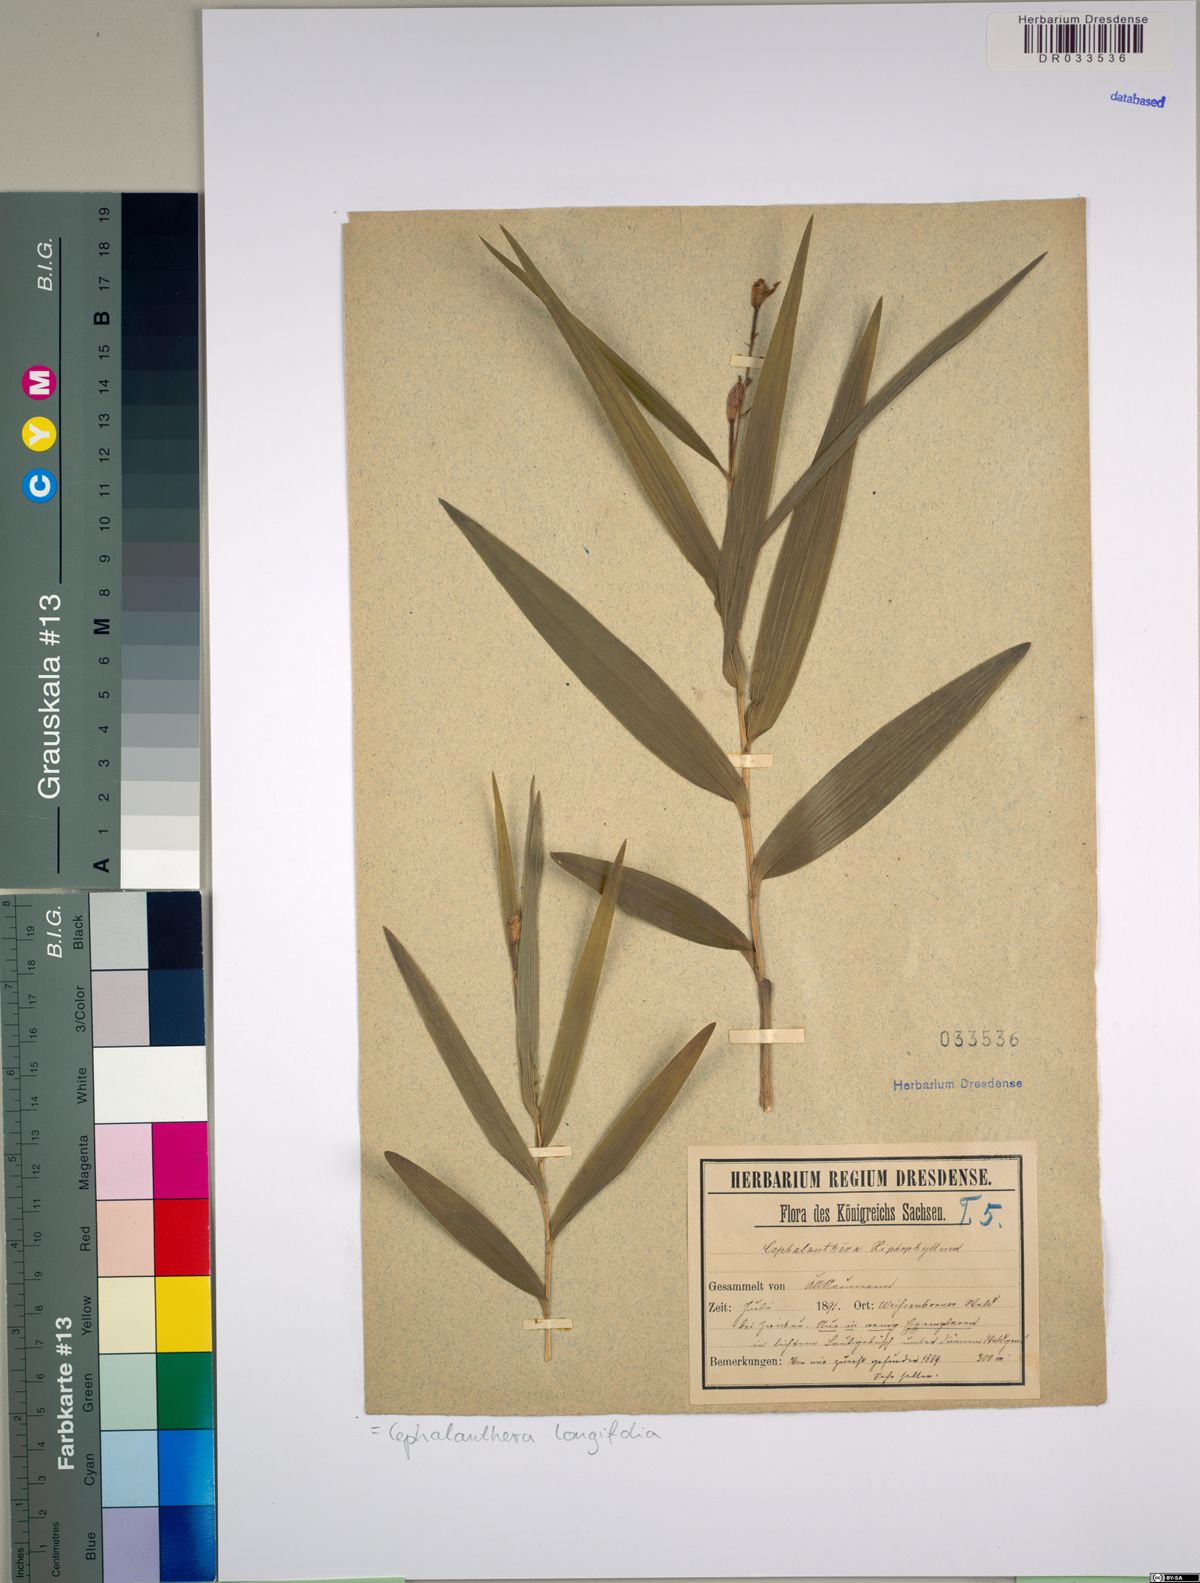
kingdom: Plantae
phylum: Tracheophyta
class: Liliopsida
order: Asparagales
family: Orchidaceae
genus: Cephalanthera
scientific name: Cephalanthera longifolia
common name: Narrow-leaved helleborine
